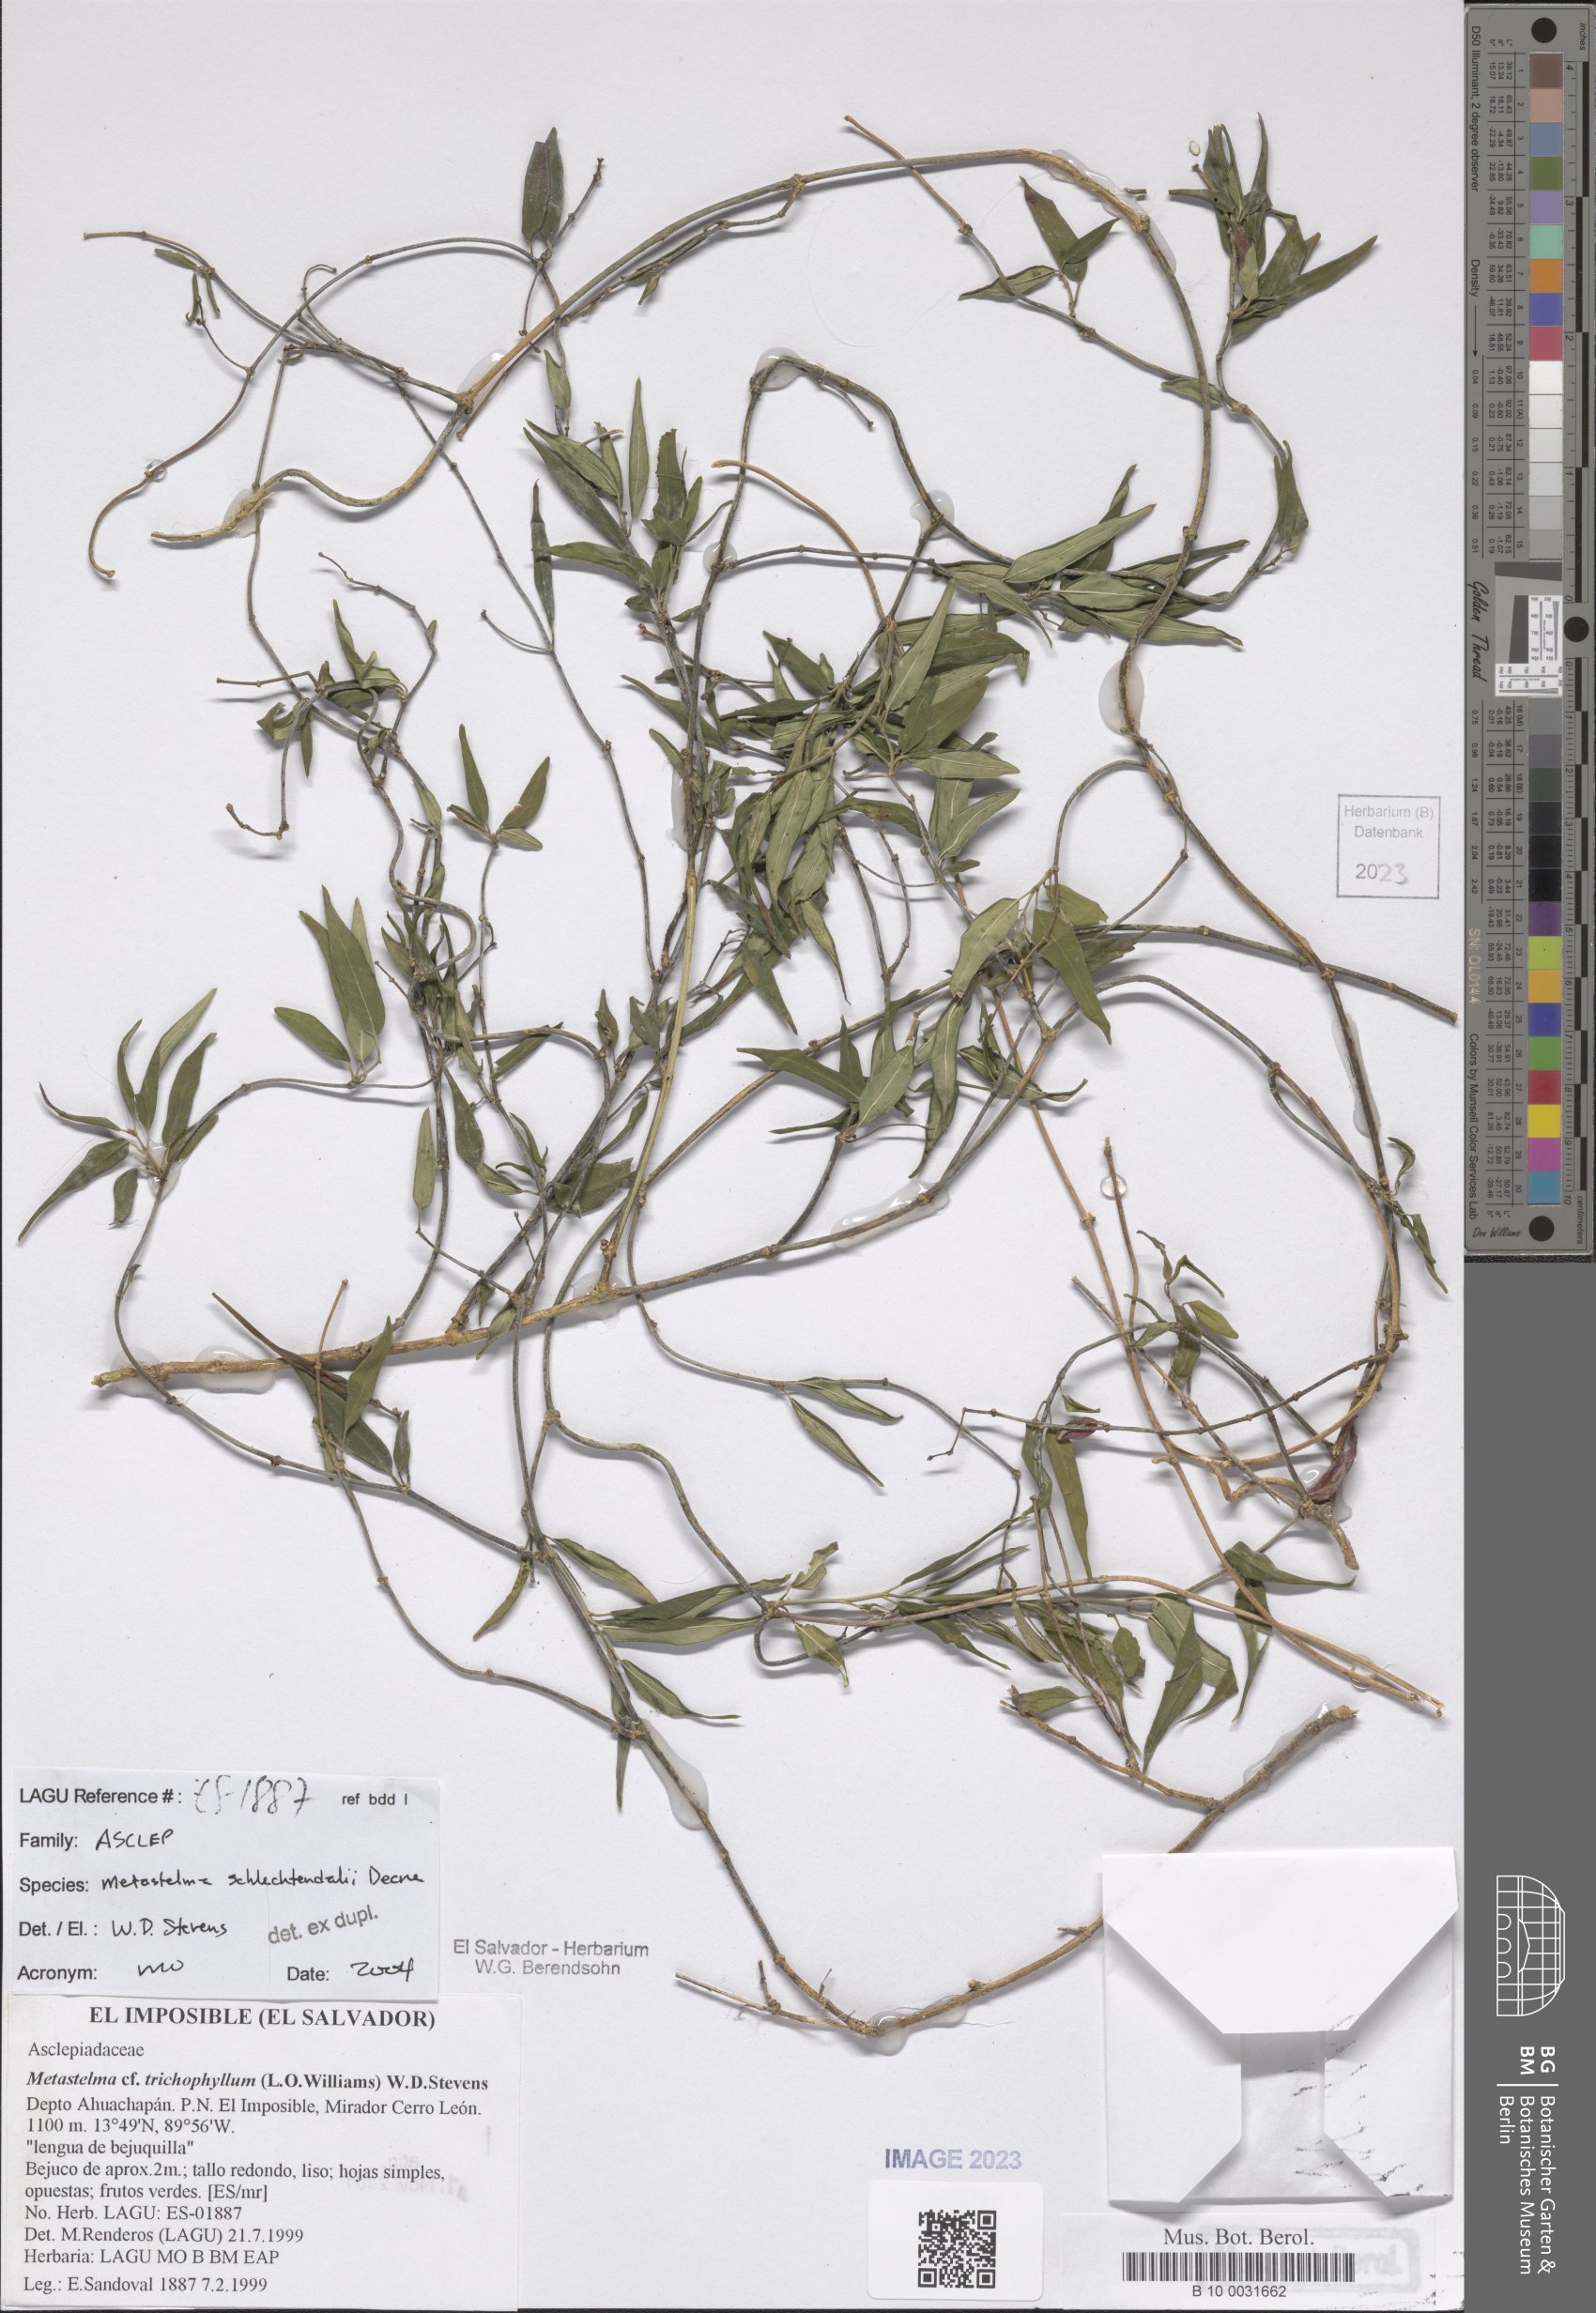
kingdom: Plantae
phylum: Tracheophyta
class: Magnoliopsida
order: Gentianales
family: Apocynaceae
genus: Metastelma
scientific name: Metastelma schlechtendalii
